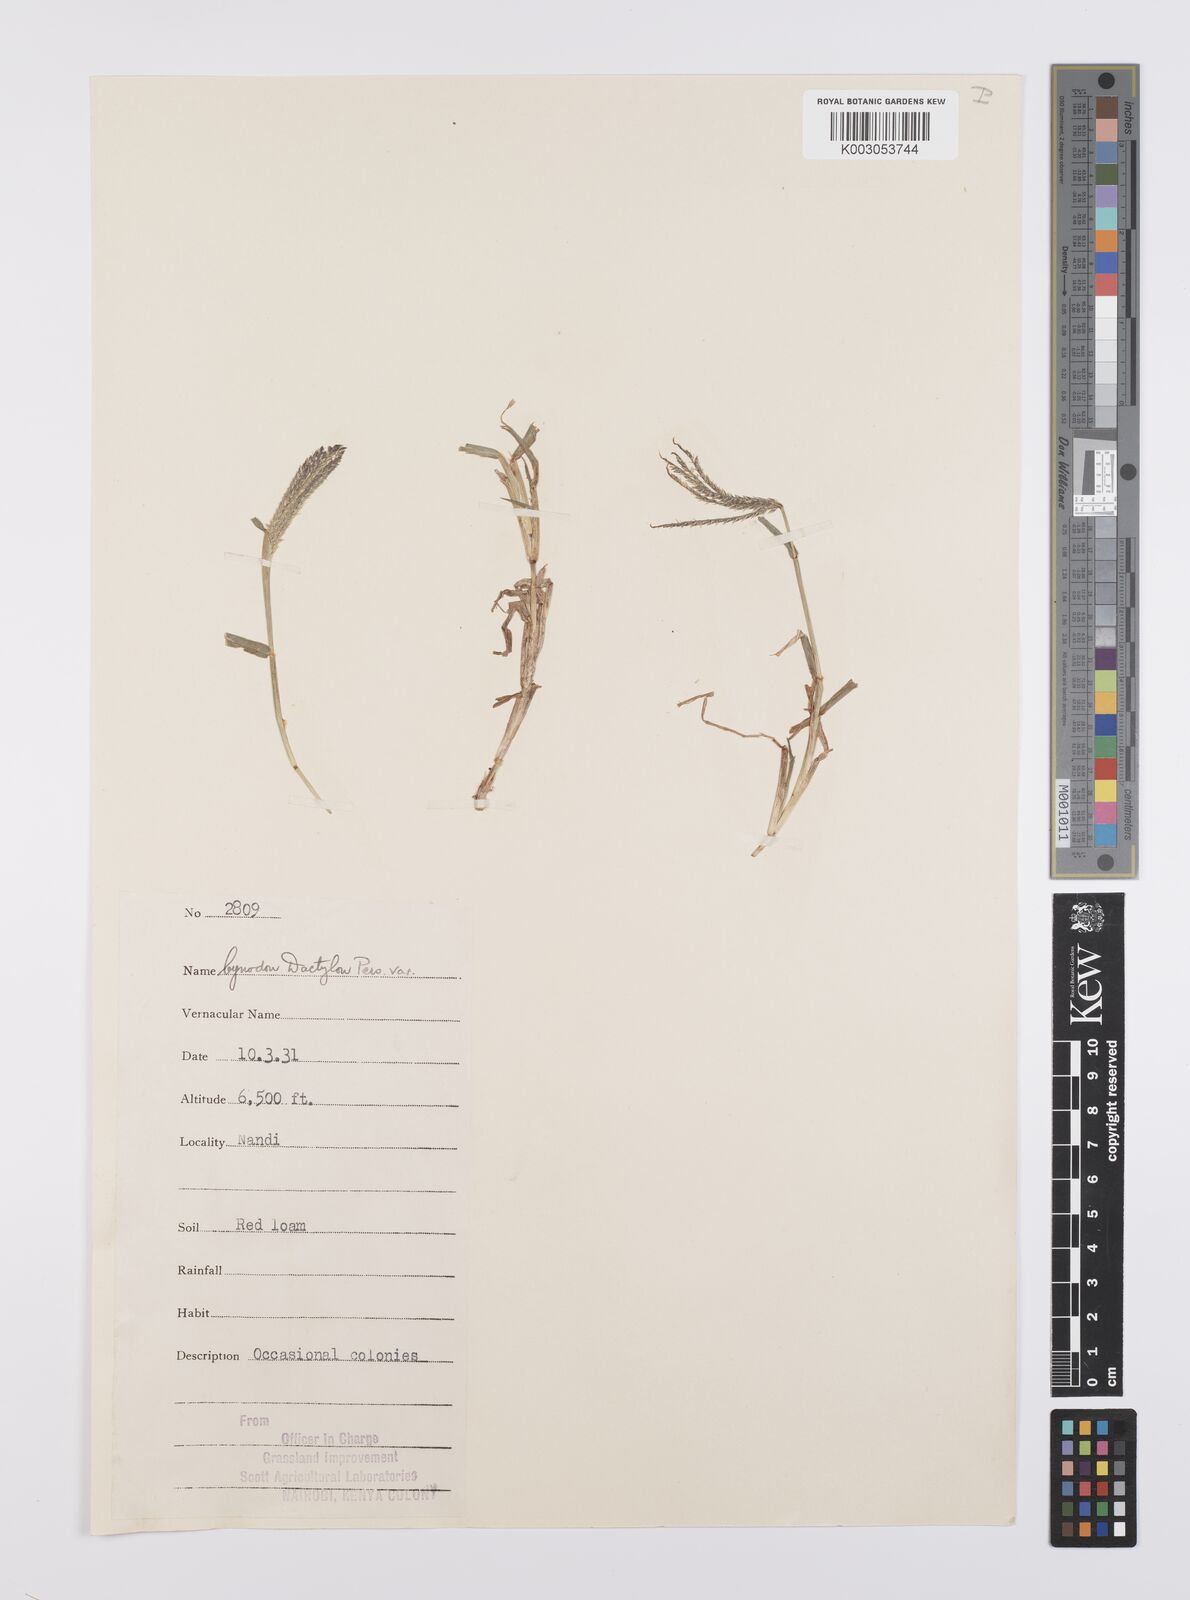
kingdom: Plantae
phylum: Tracheophyta
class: Liliopsida
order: Poales
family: Poaceae
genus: Cynodon
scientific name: Cynodon dactylon
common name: Bermuda grass
